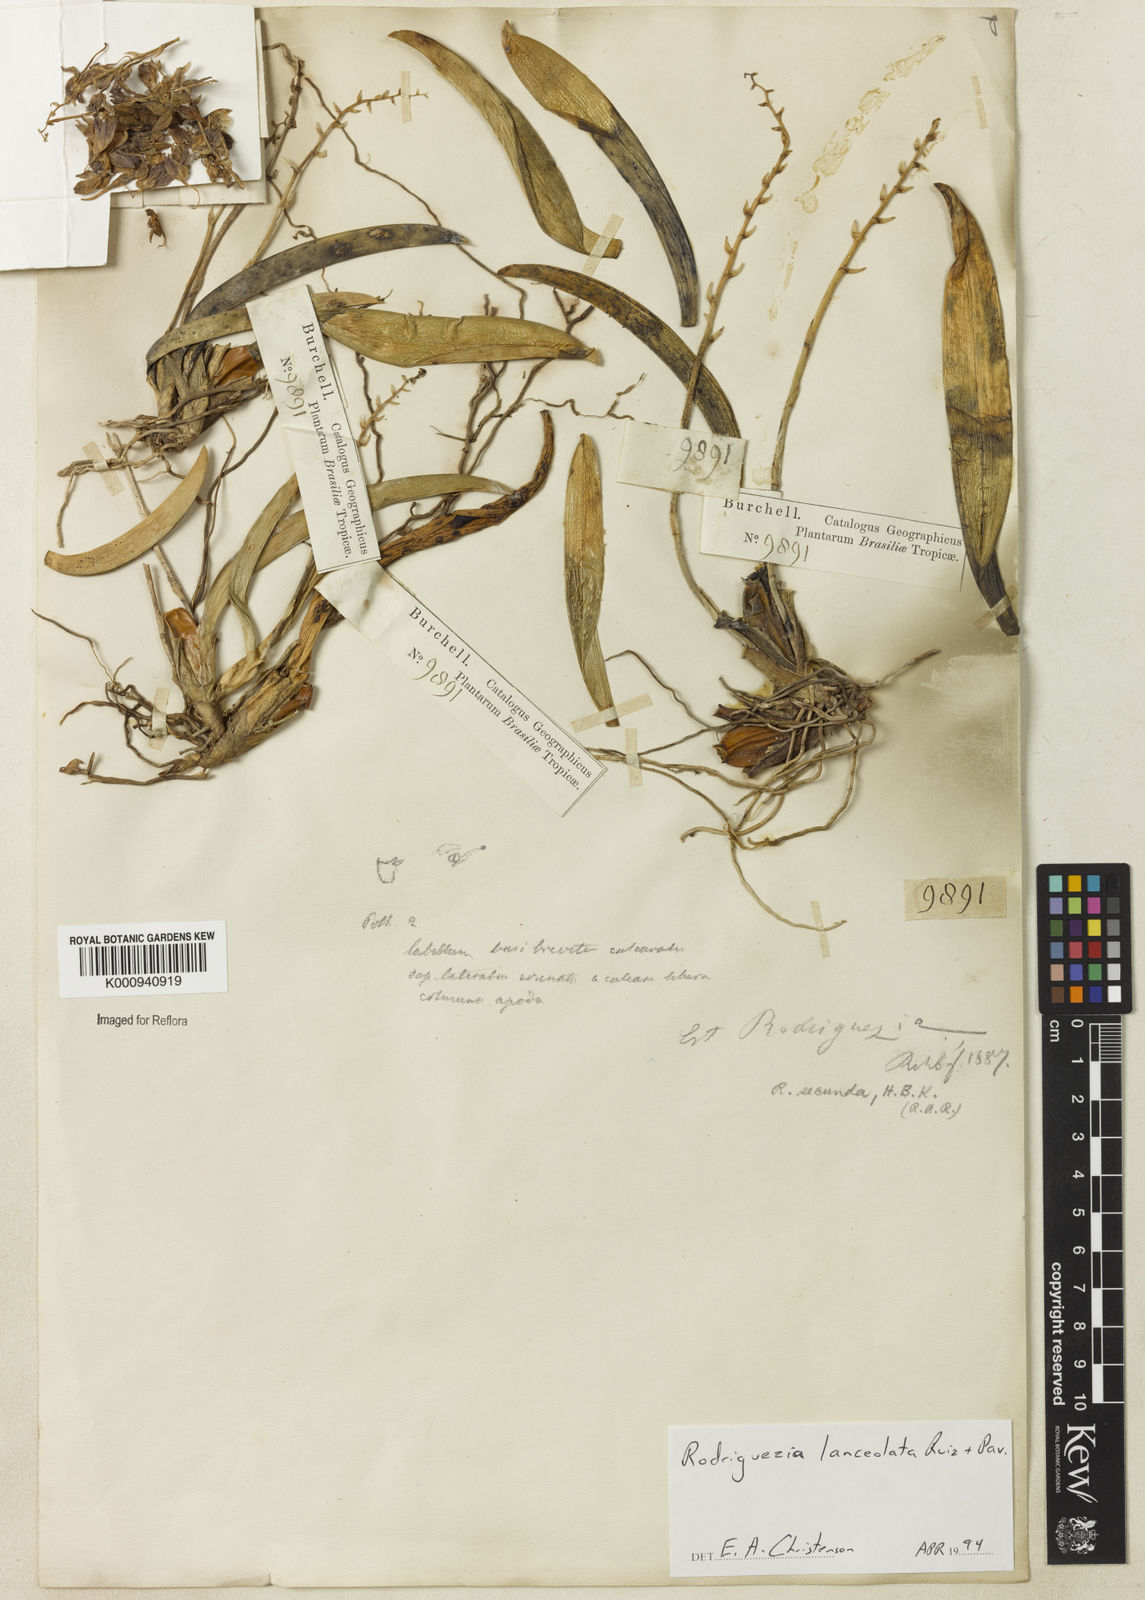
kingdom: Plantae
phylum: Tracheophyta
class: Liliopsida
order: Asparagales
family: Orchidaceae
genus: Rodriguezia
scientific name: Rodriguezia lanceolata
